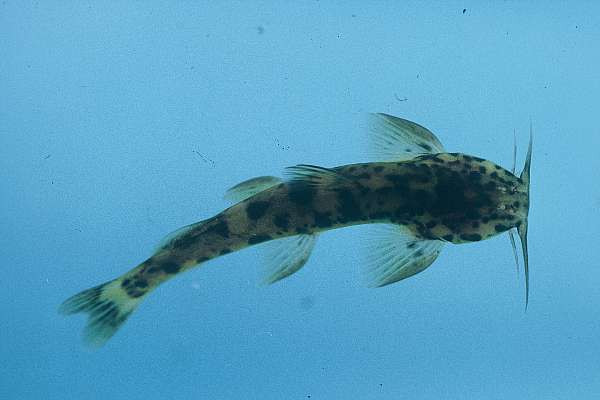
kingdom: Animalia
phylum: Chordata
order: Siluriformes
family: Amphiliidae
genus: Amphilius
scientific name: Amphilius uranoscopus
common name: Stargazer mountain catfish
